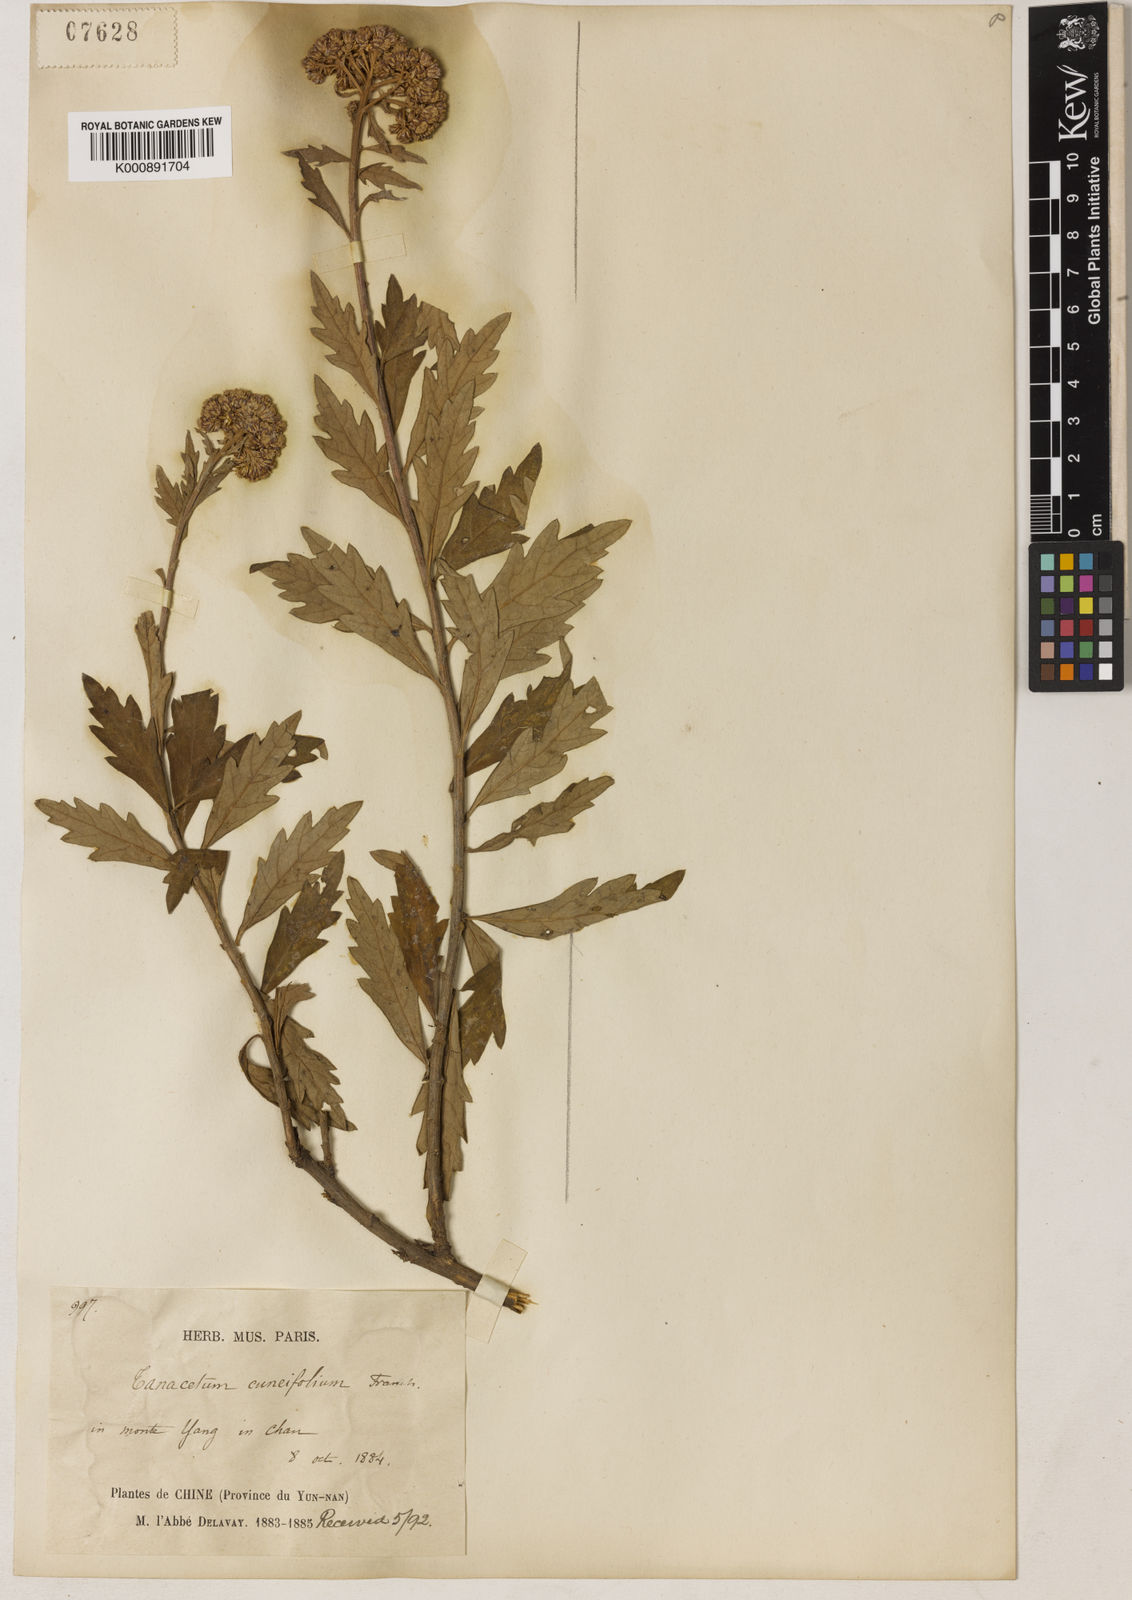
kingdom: Plantae
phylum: Tracheophyta
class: Magnoliopsida
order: Asterales
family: Asteraceae
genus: Chrysanthemum
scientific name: Chrysanthemum cuneifolium
